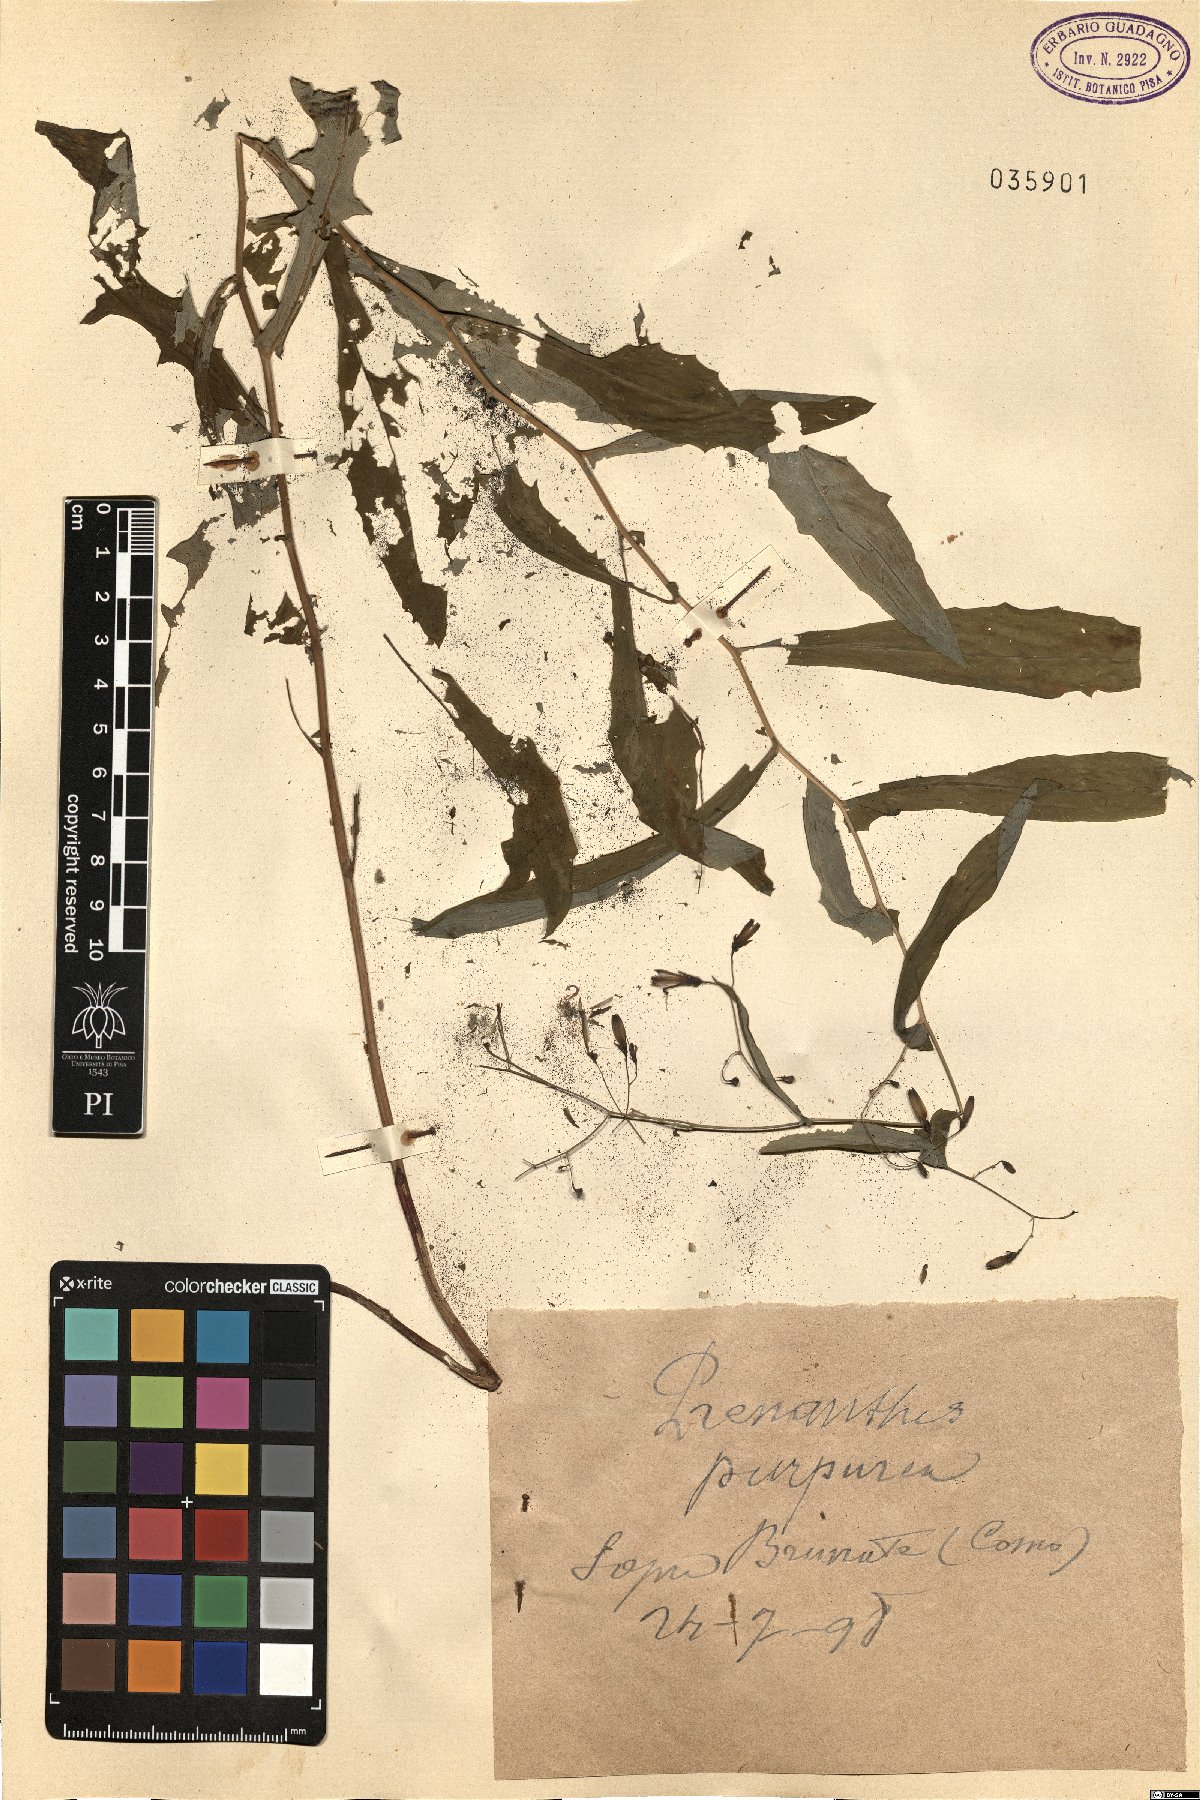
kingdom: Plantae
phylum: Tracheophyta
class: Magnoliopsida
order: Asterales
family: Asteraceae
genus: Prenanthes
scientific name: Prenanthes purpurea
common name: Purple lettuce
